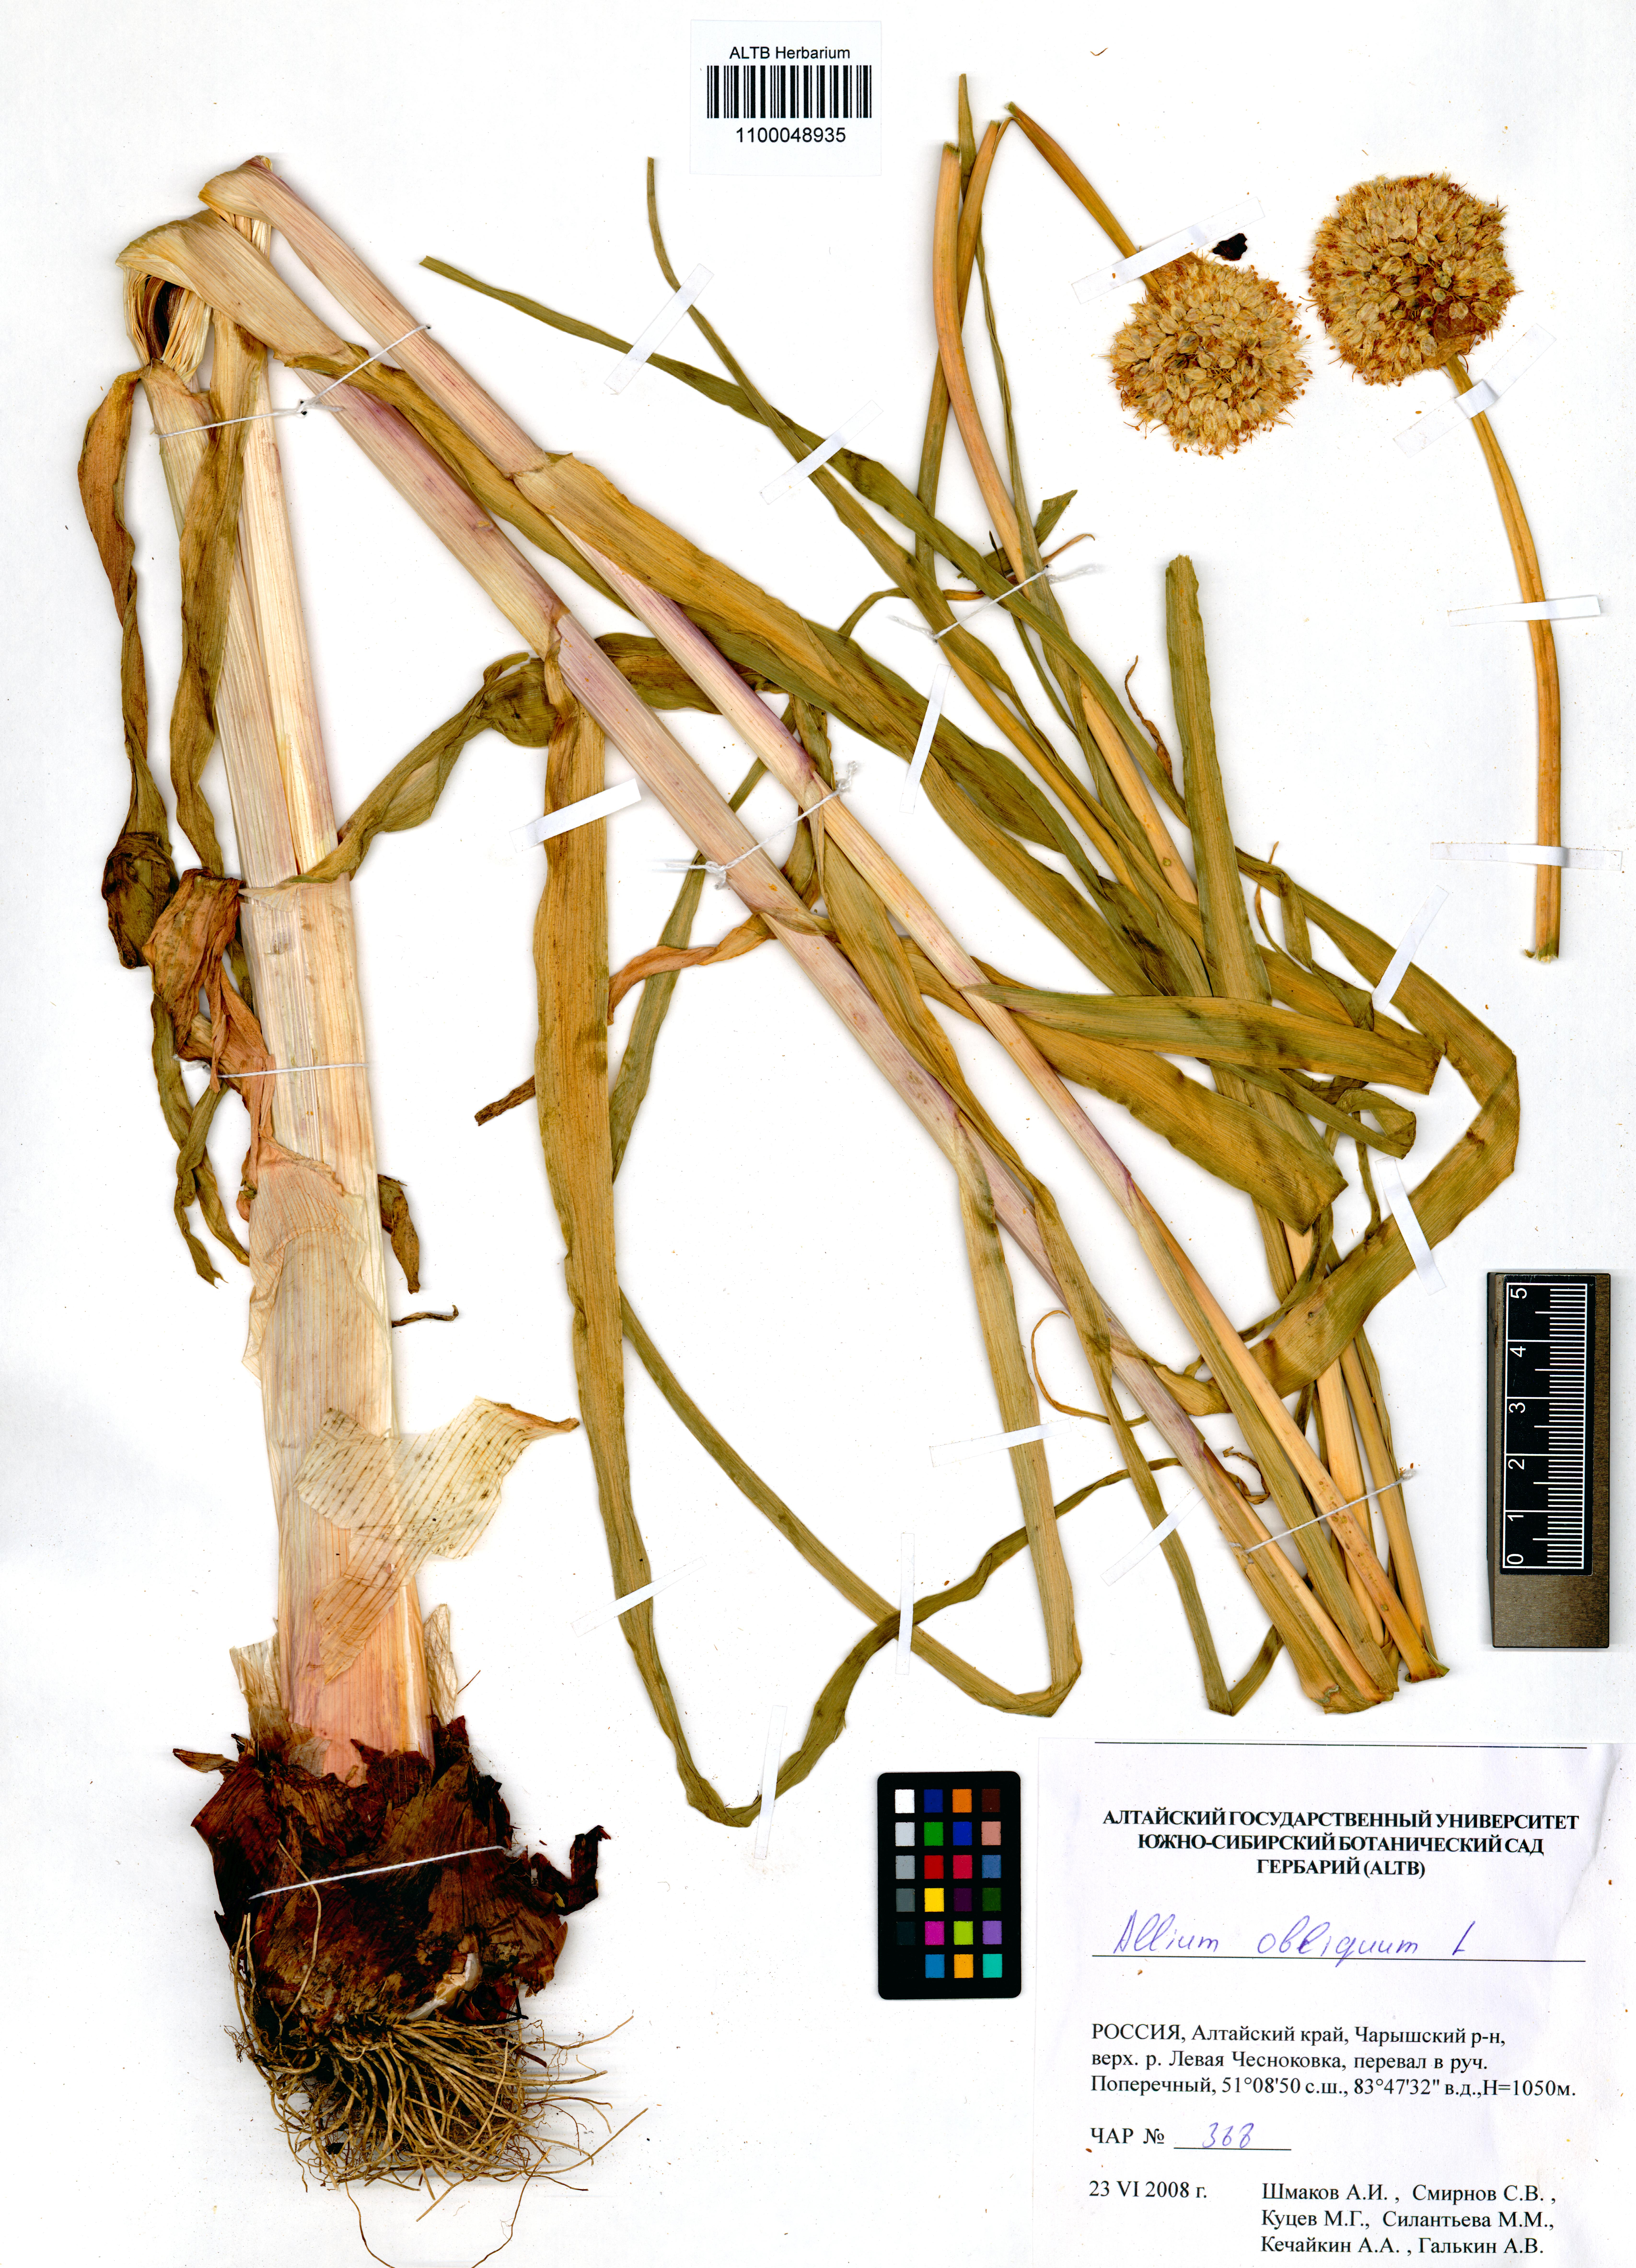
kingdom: Plantae
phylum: Tracheophyta
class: Liliopsida
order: Asparagales
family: Amaryllidaceae
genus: Allium
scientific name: Allium obliquum
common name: Oblique onion
